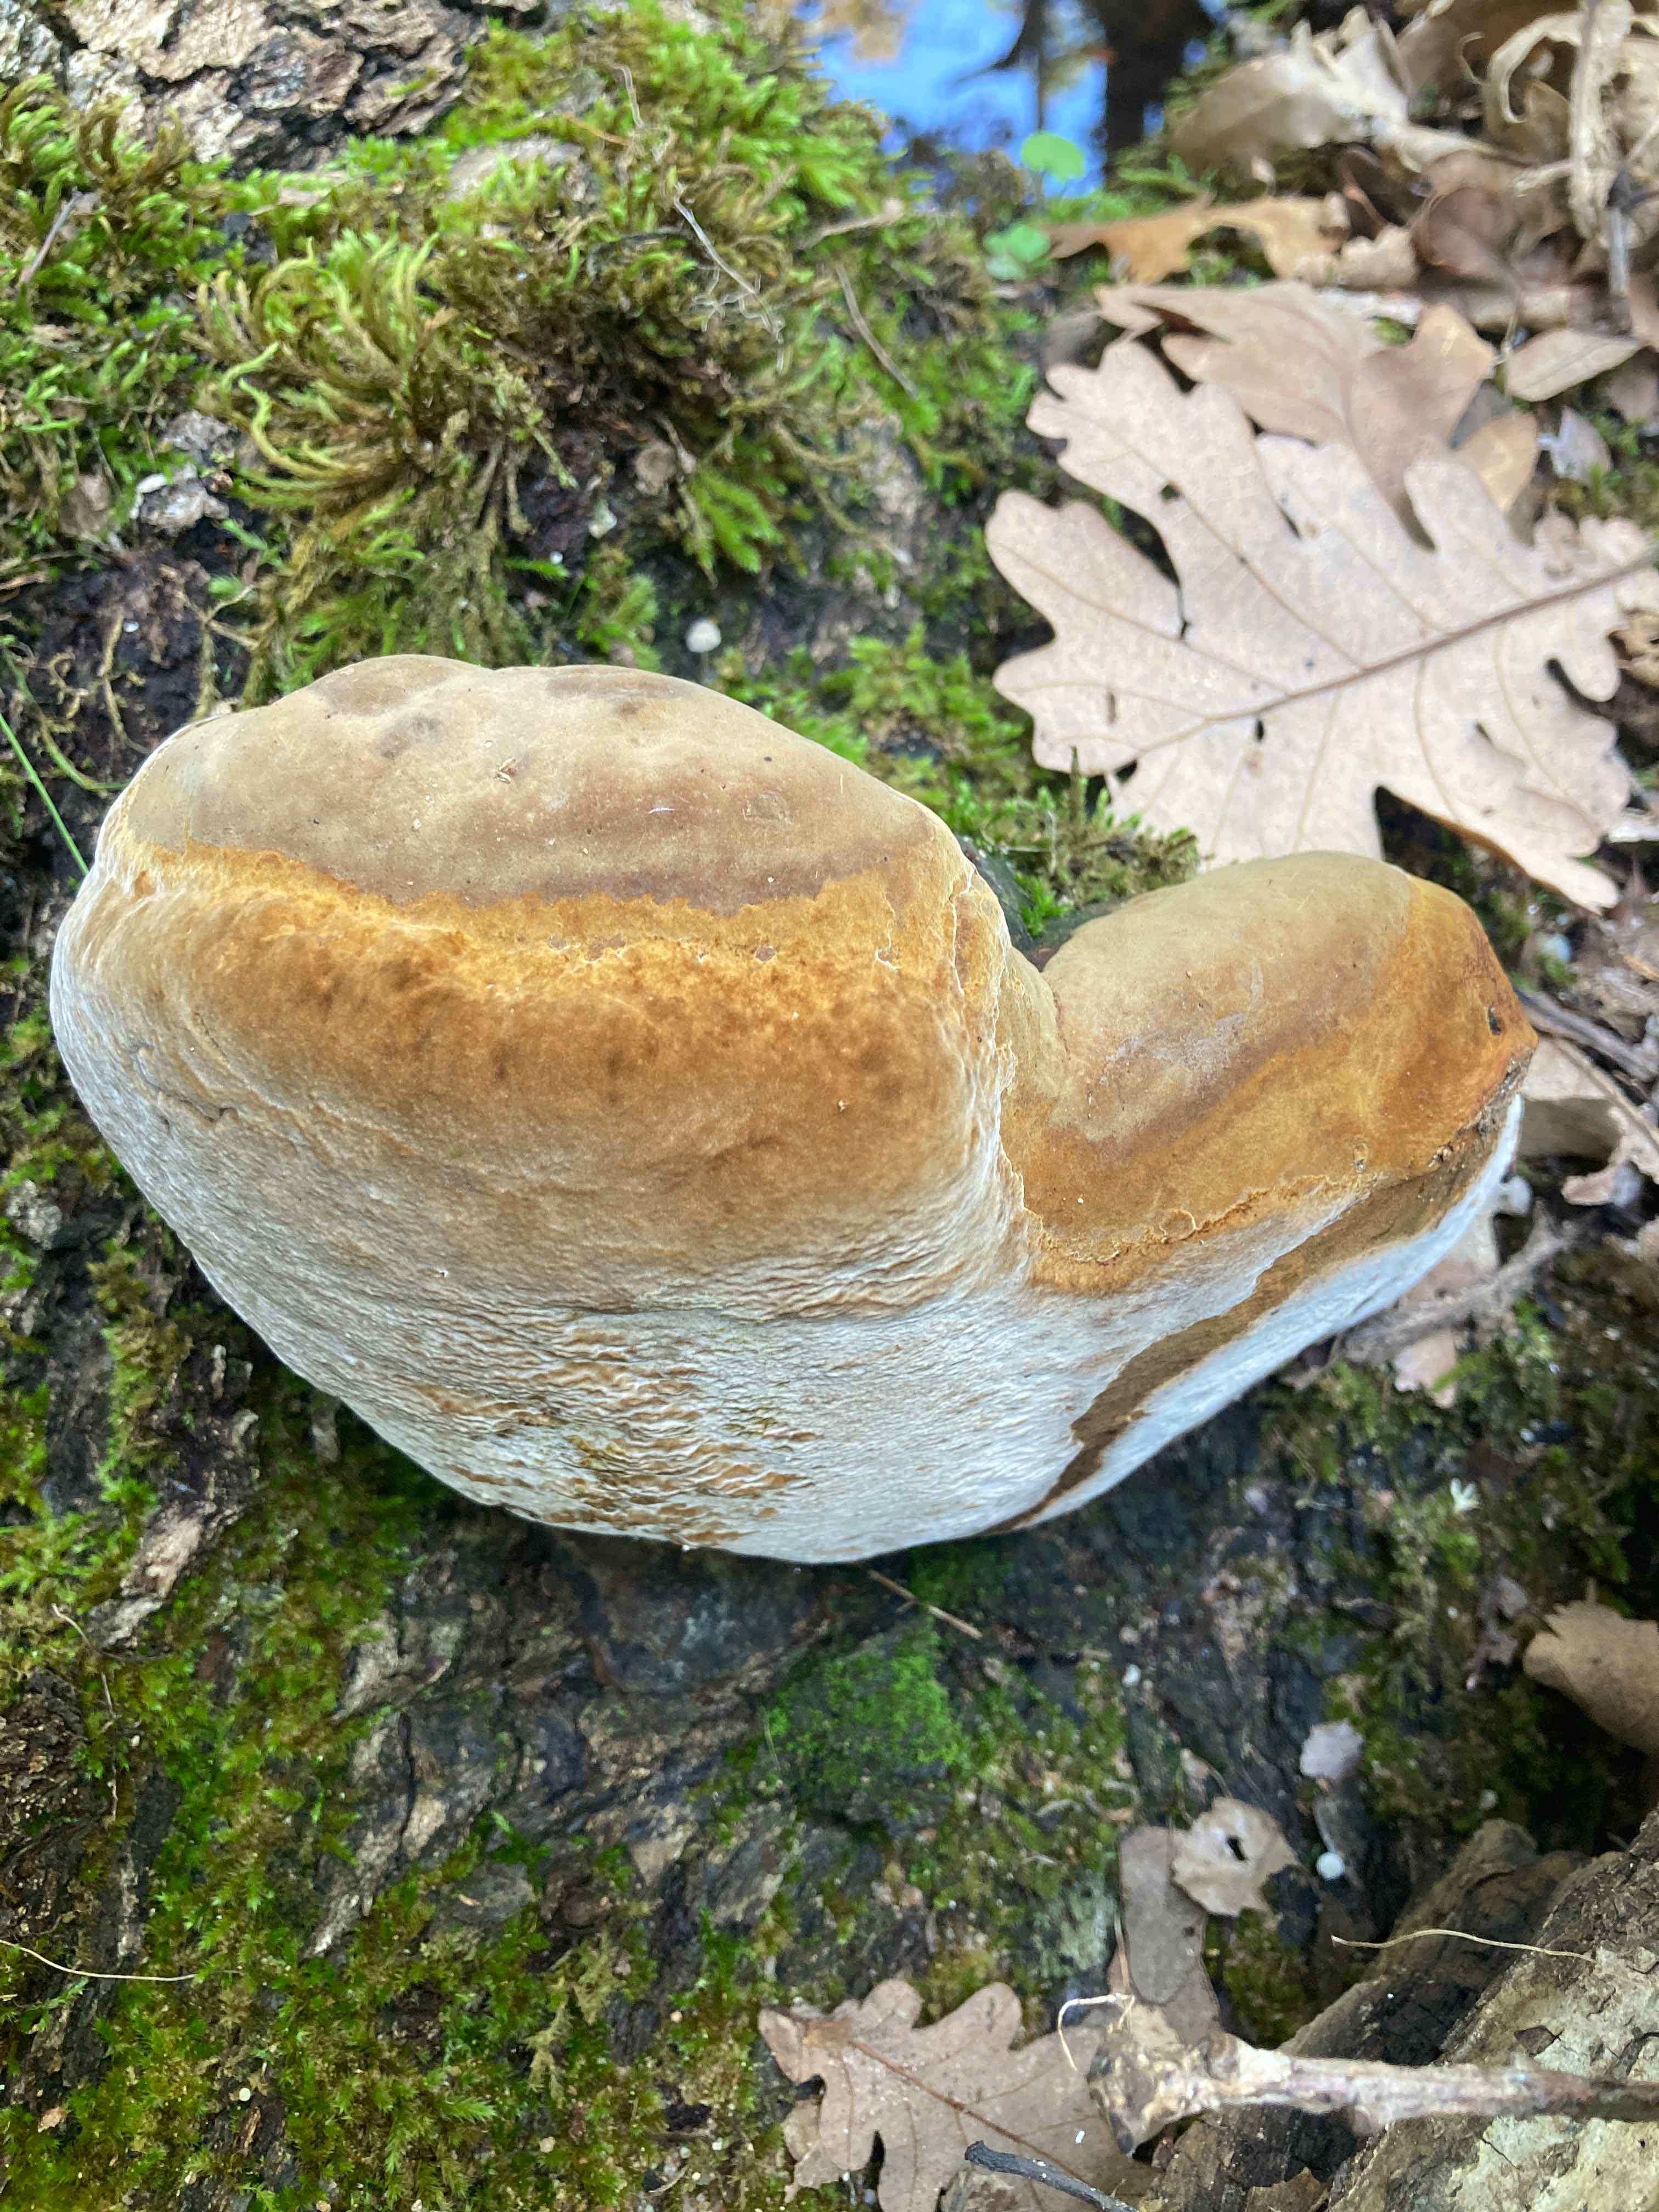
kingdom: Fungi
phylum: Basidiomycota
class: Agaricomycetes
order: Hymenochaetales
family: Hymenochaetaceae
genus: Fomitiporia
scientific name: Fomitiporia robusta
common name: ege-ildporesvamp
